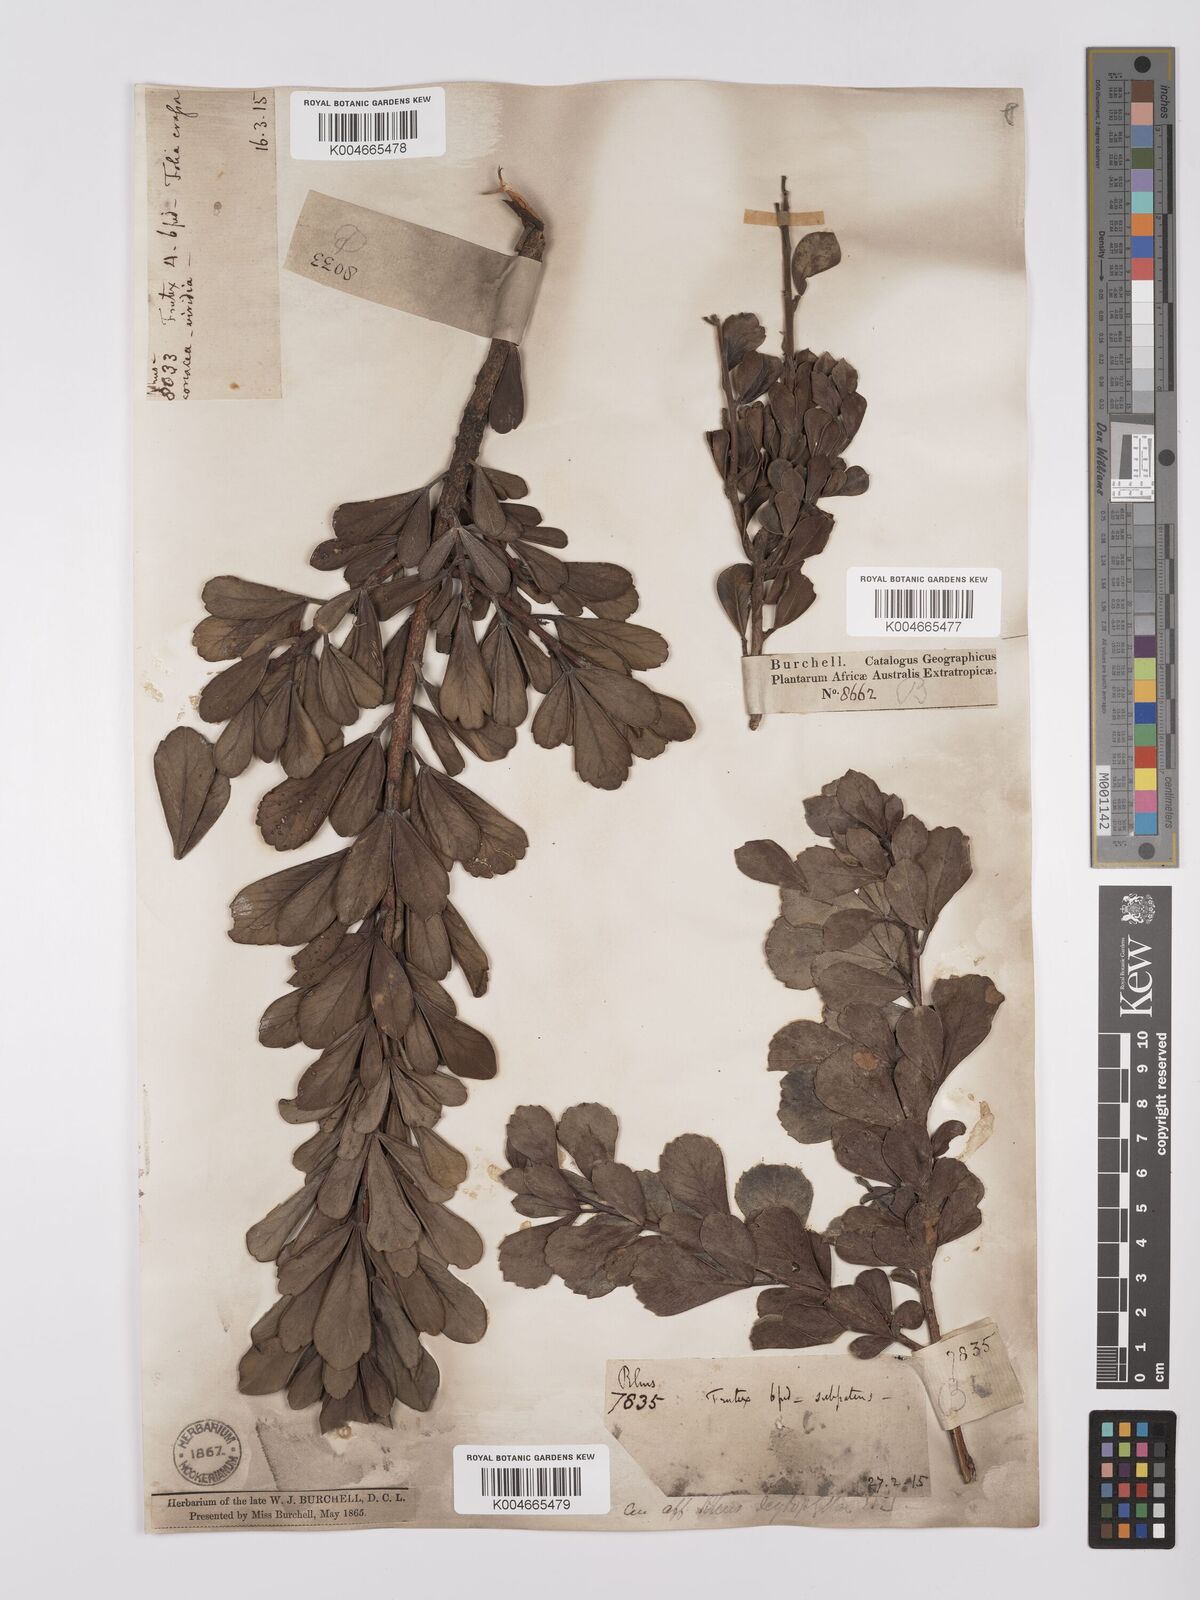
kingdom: Plantae
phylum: Tracheophyta
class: Magnoliopsida
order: Sapindales
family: Anacardiaceae
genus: Searsia
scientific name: Searsia scytophylla
